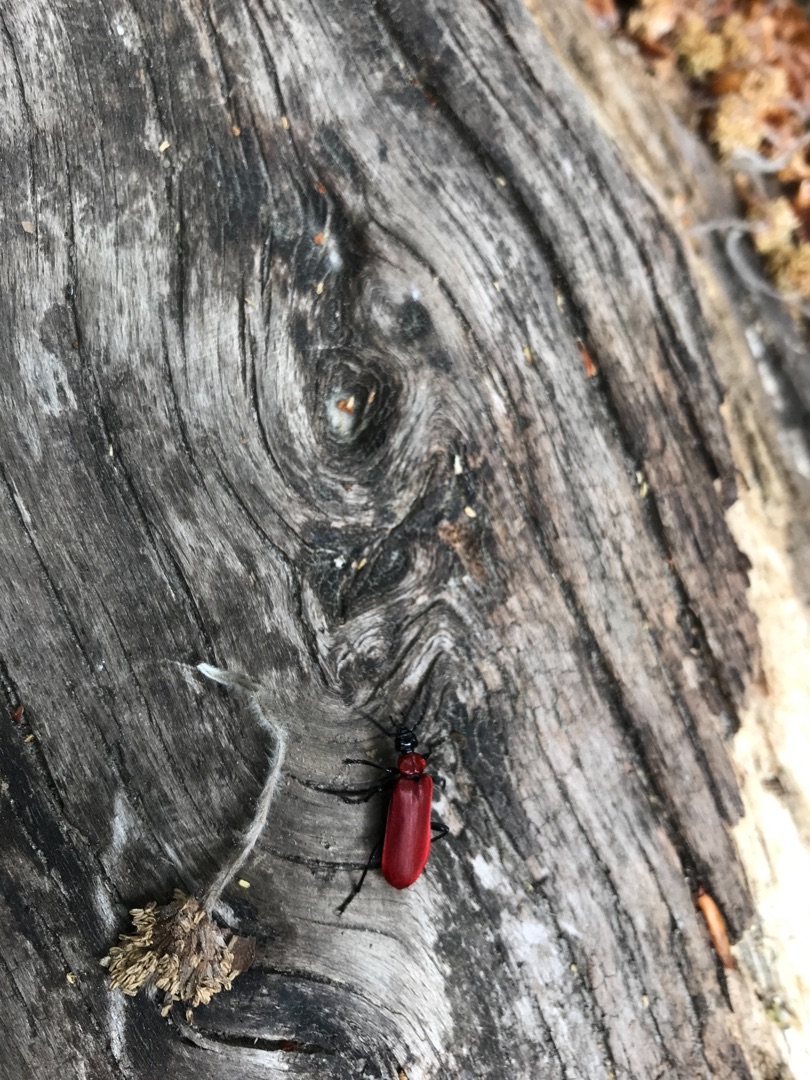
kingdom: Animalia
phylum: Arthropoda
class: Insecta
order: Coleoptera
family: Pyrochroidae
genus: Pyrochroa
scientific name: Pyrochroa coccinea
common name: Sorthovedet kardinalbille
